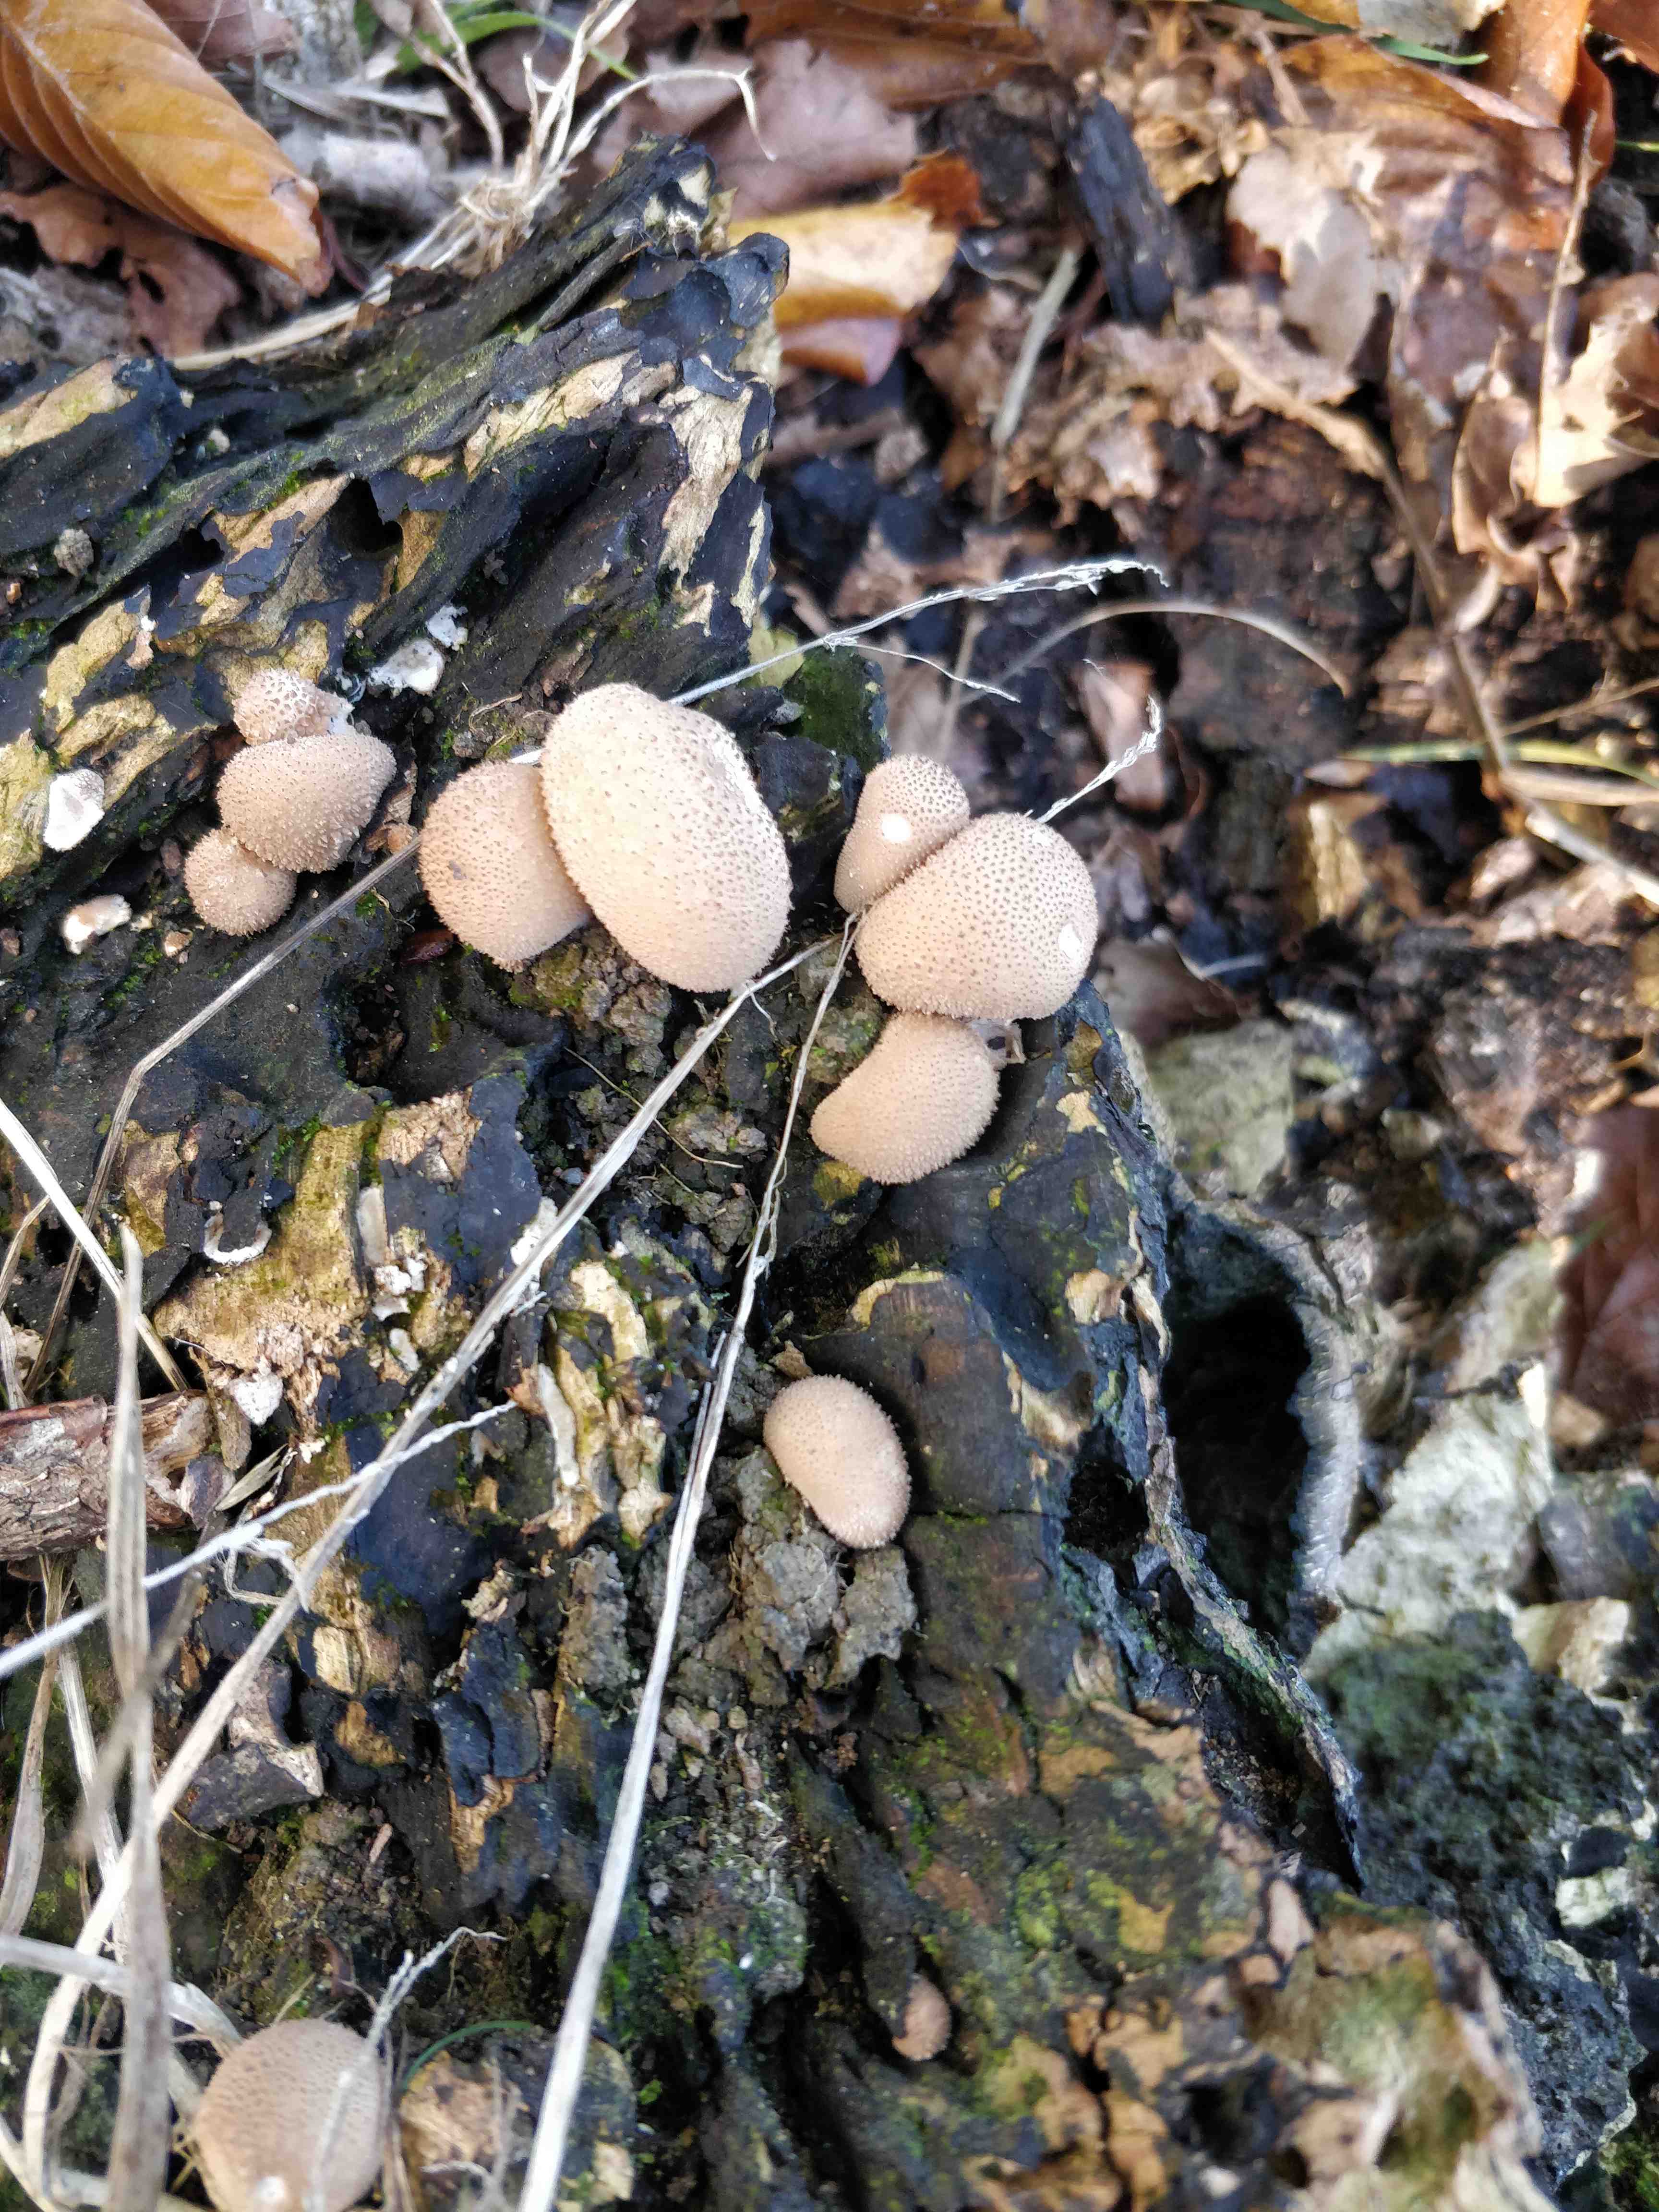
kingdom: Fungi
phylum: Basidiomycota
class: Agaricomycetes
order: Agaricales
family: Lycoperdaceae
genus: Apioperdon
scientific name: Apioperdon pyriforme
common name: pære-støvbold
